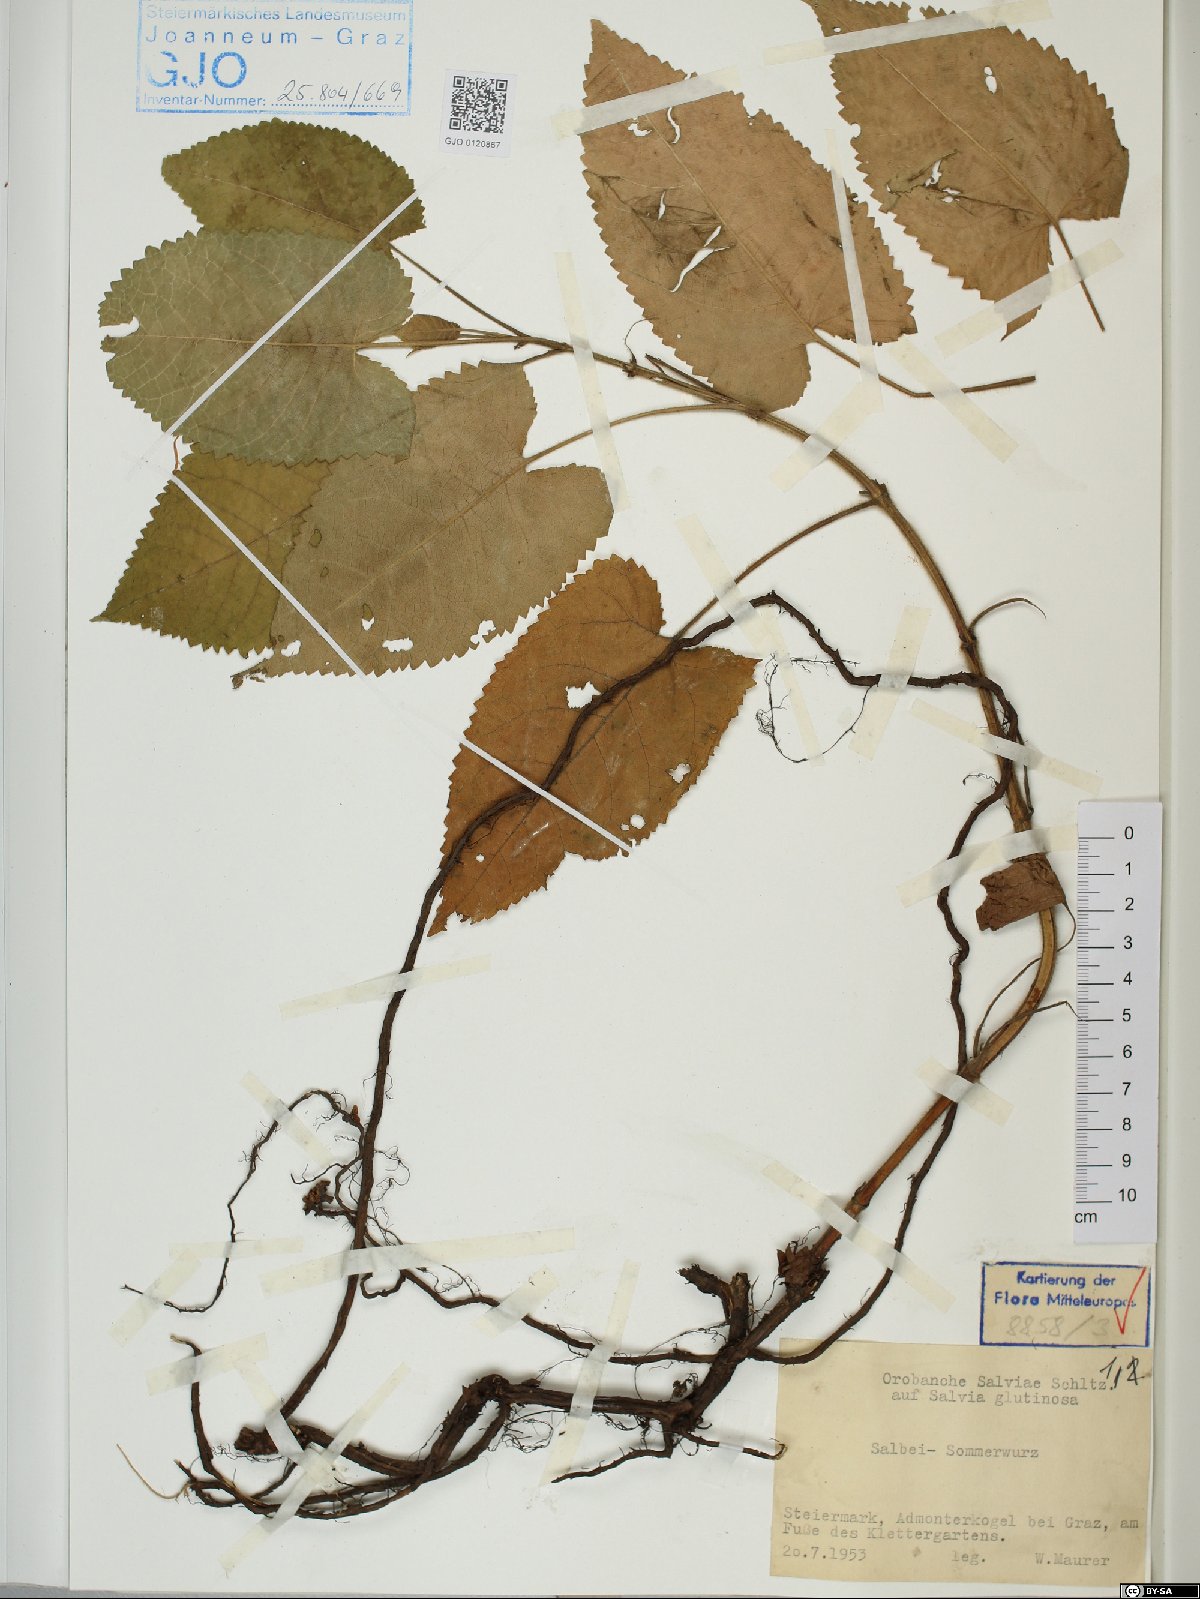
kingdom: Plantae
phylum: Tracheophyta
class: Magnoliopsida
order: Lamiales
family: Orobanchaceae
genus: Orobanche
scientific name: Orobanche salviae
